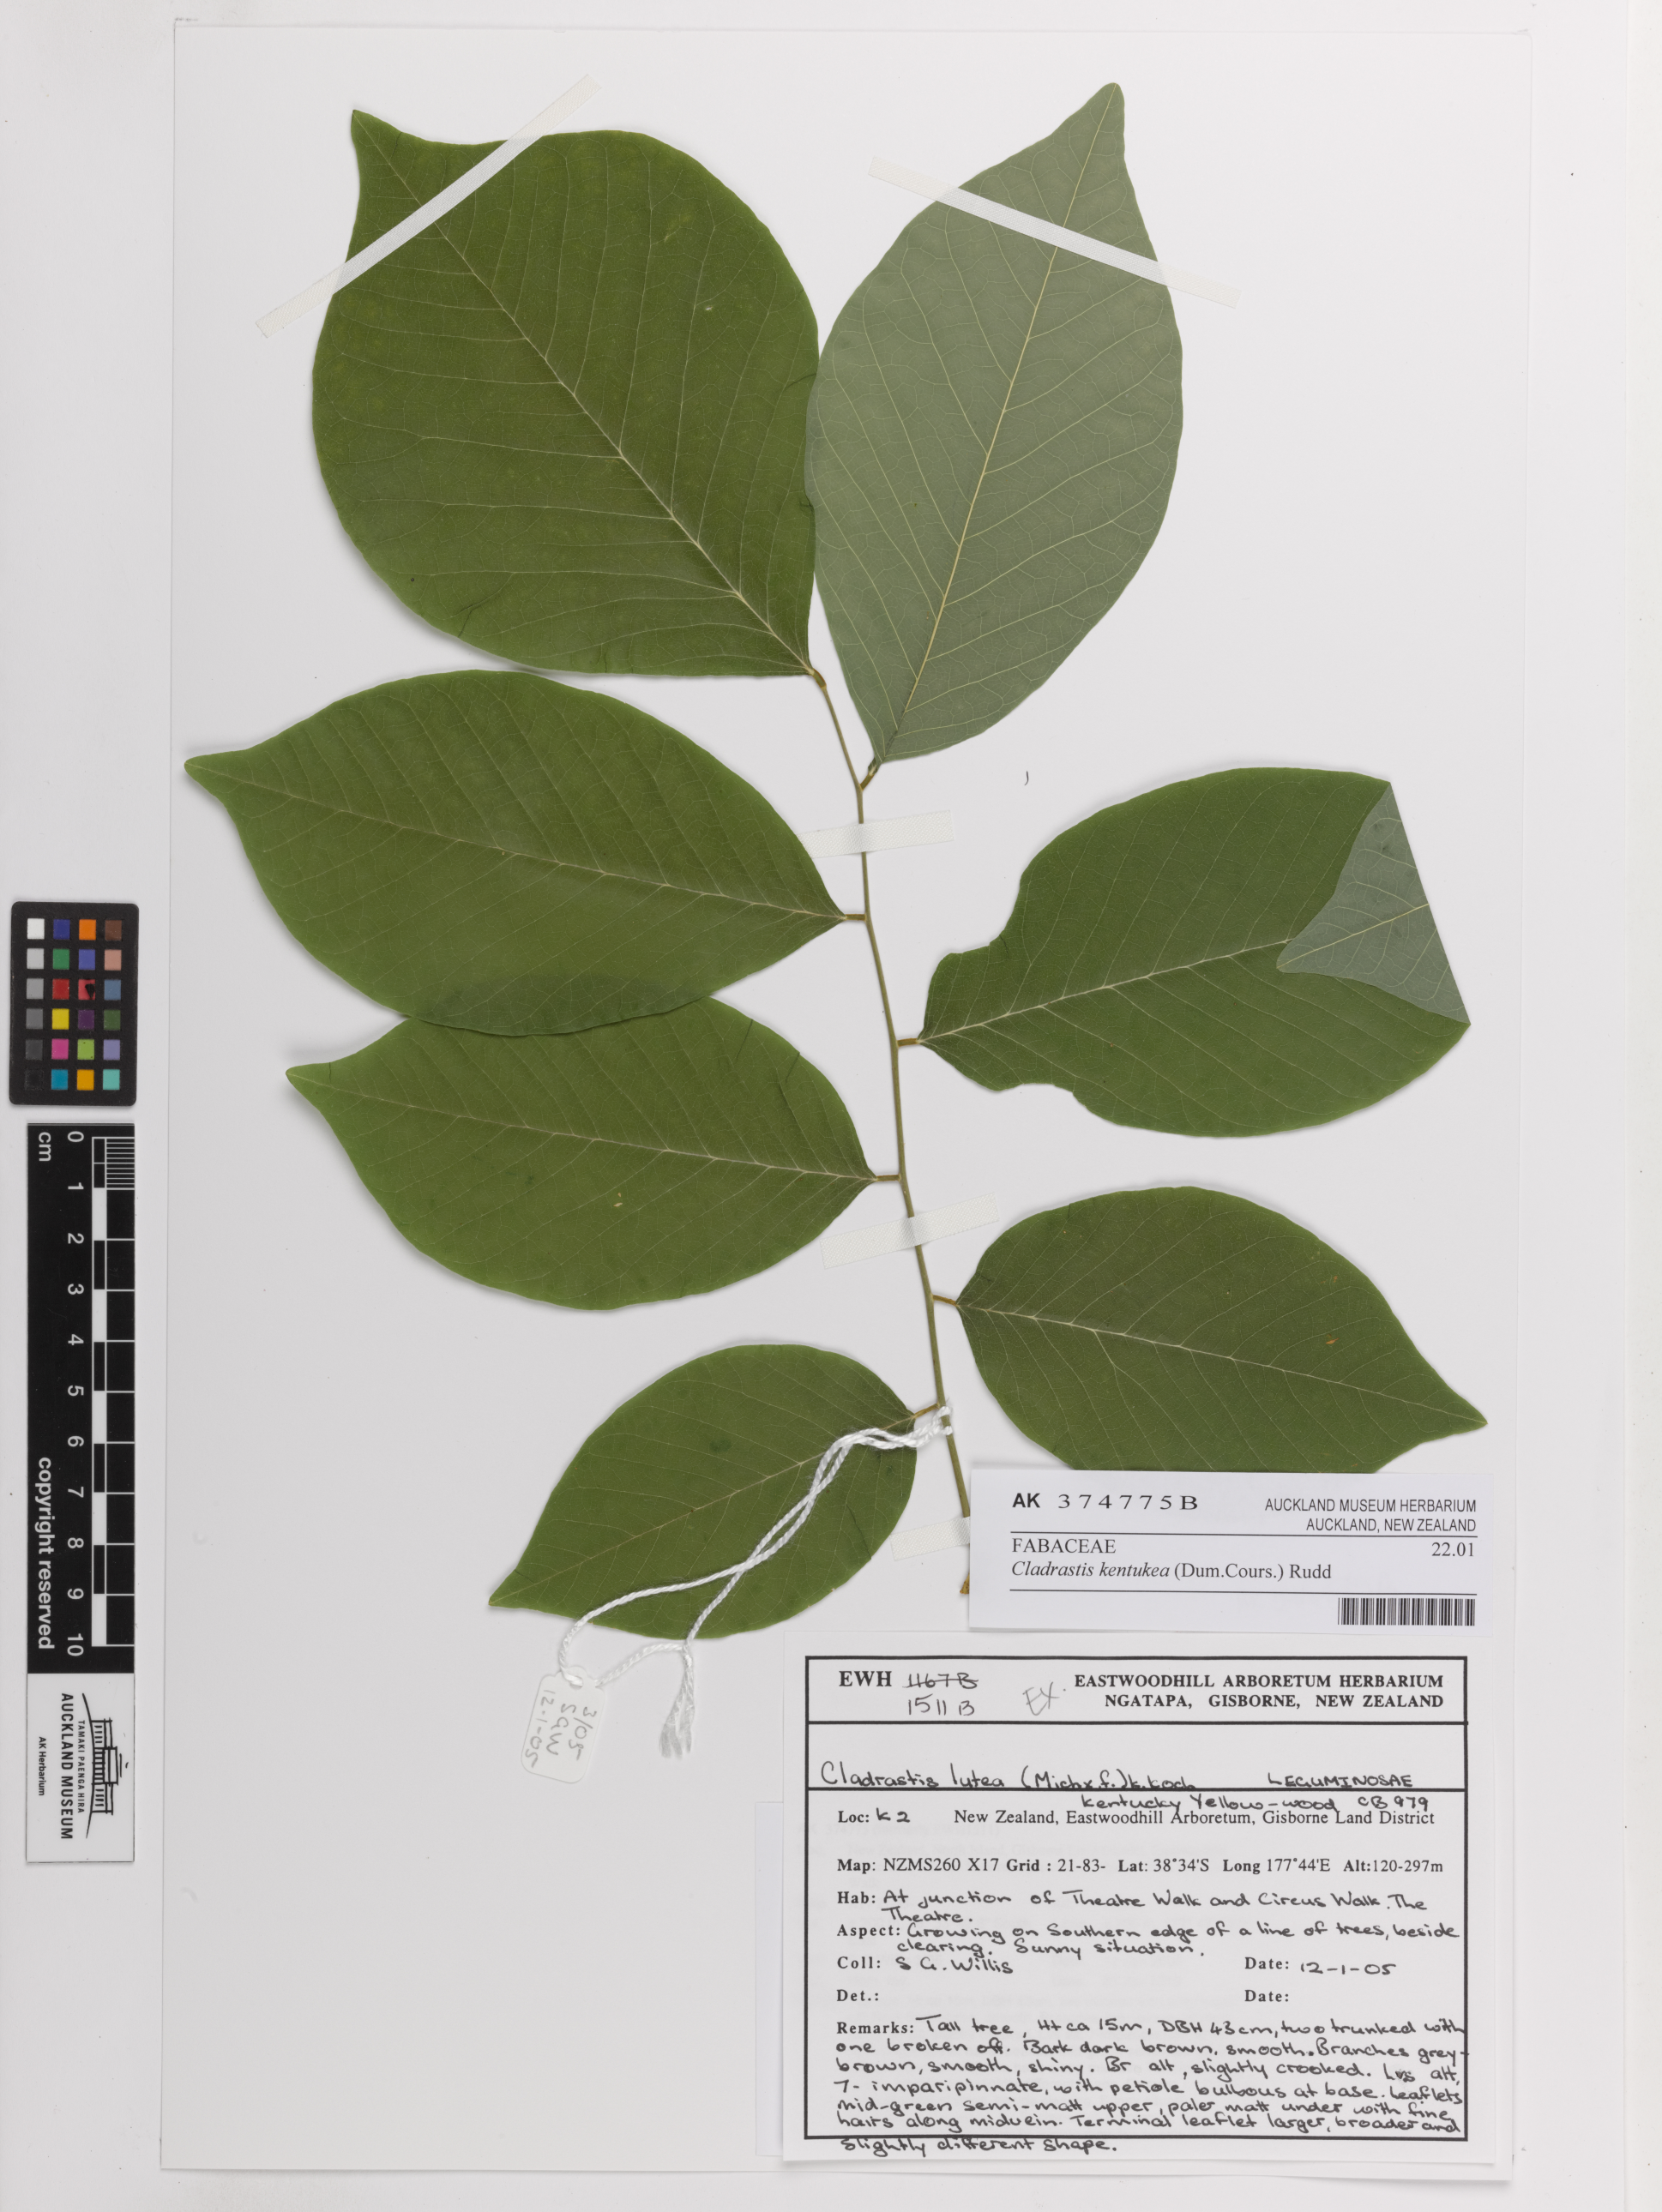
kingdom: Plantae
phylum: Tracheophyta
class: Magnoliopsida
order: Fabales
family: Fabaceae
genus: Cladrastis
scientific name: Cladrastis kentukea
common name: Kentucky yellow-wood
